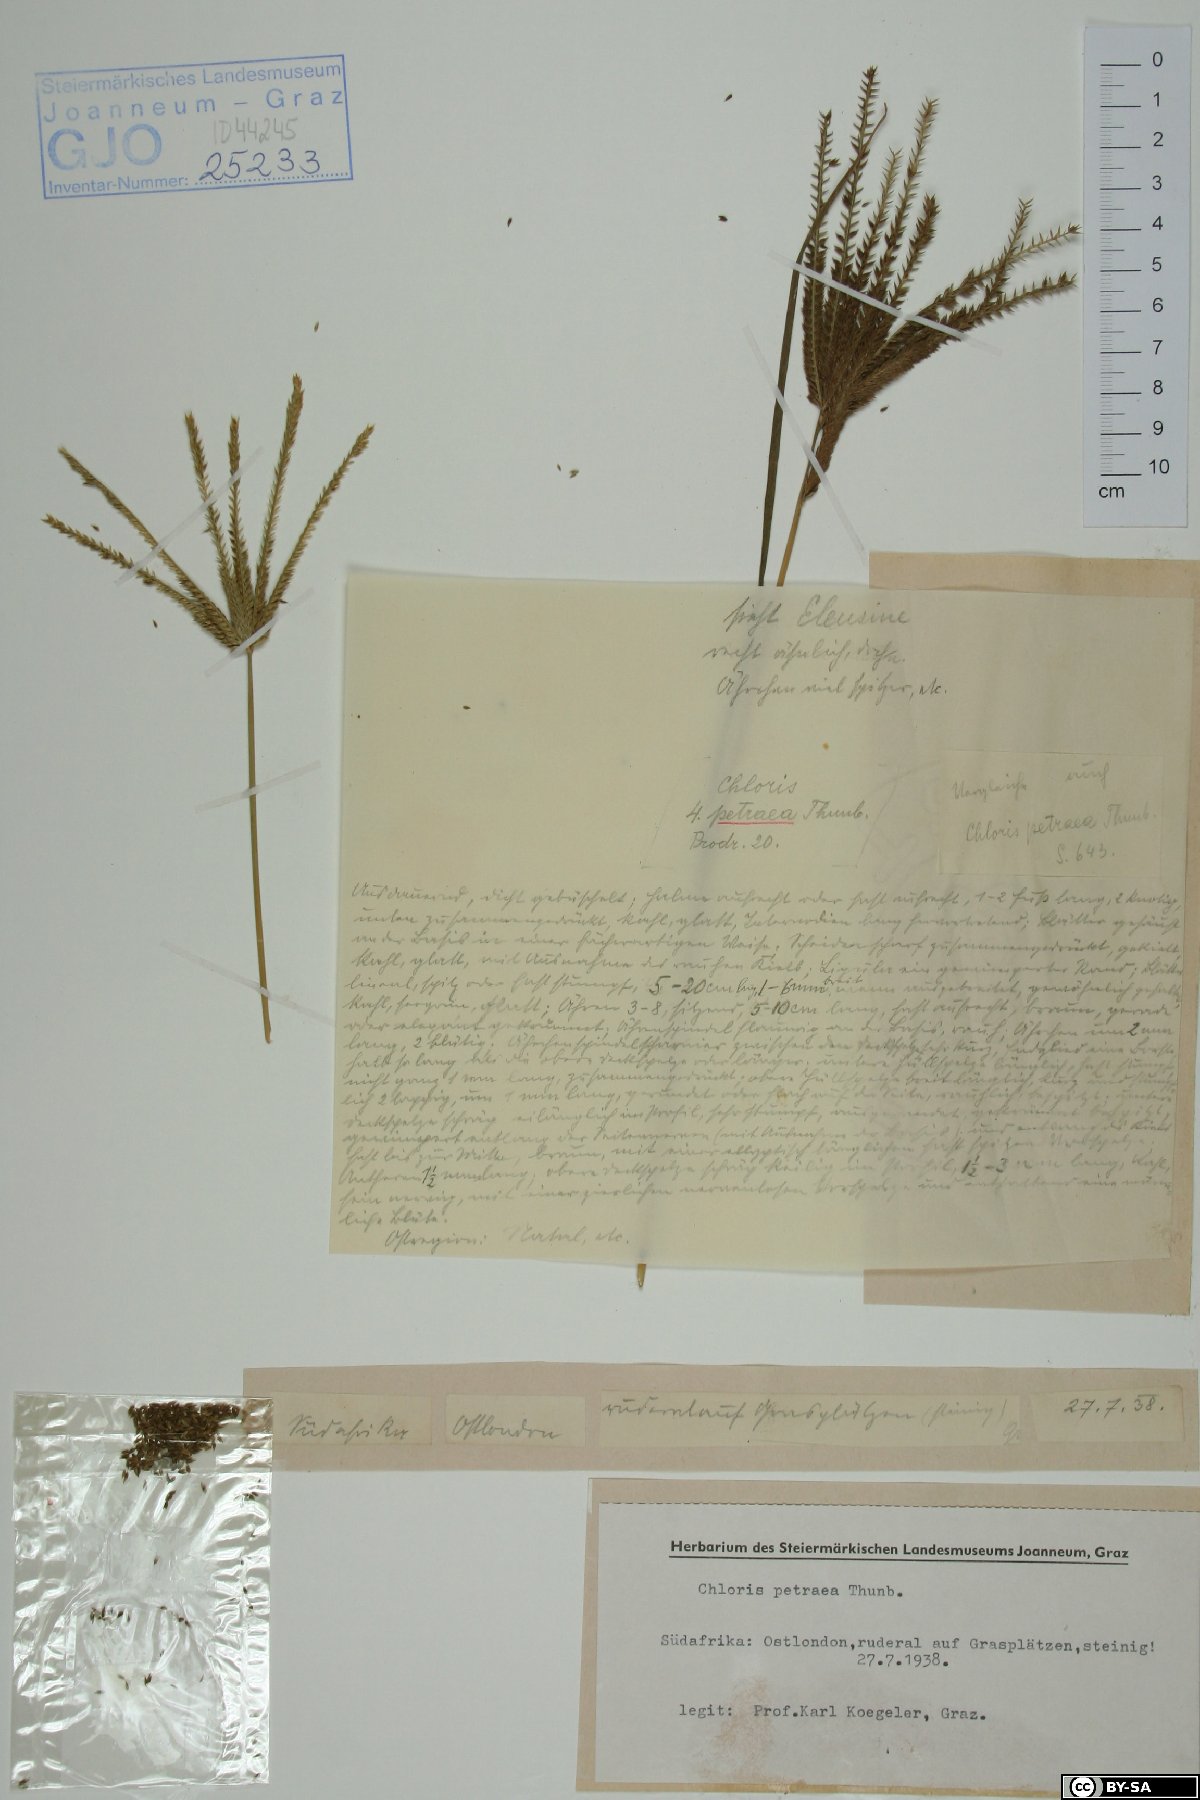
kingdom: Plantae
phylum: Tracheophyta
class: Liliopsida
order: Poales
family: Poaceae
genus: Eustachys
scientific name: Eustachys petraea
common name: Pinewoods fingergrass
